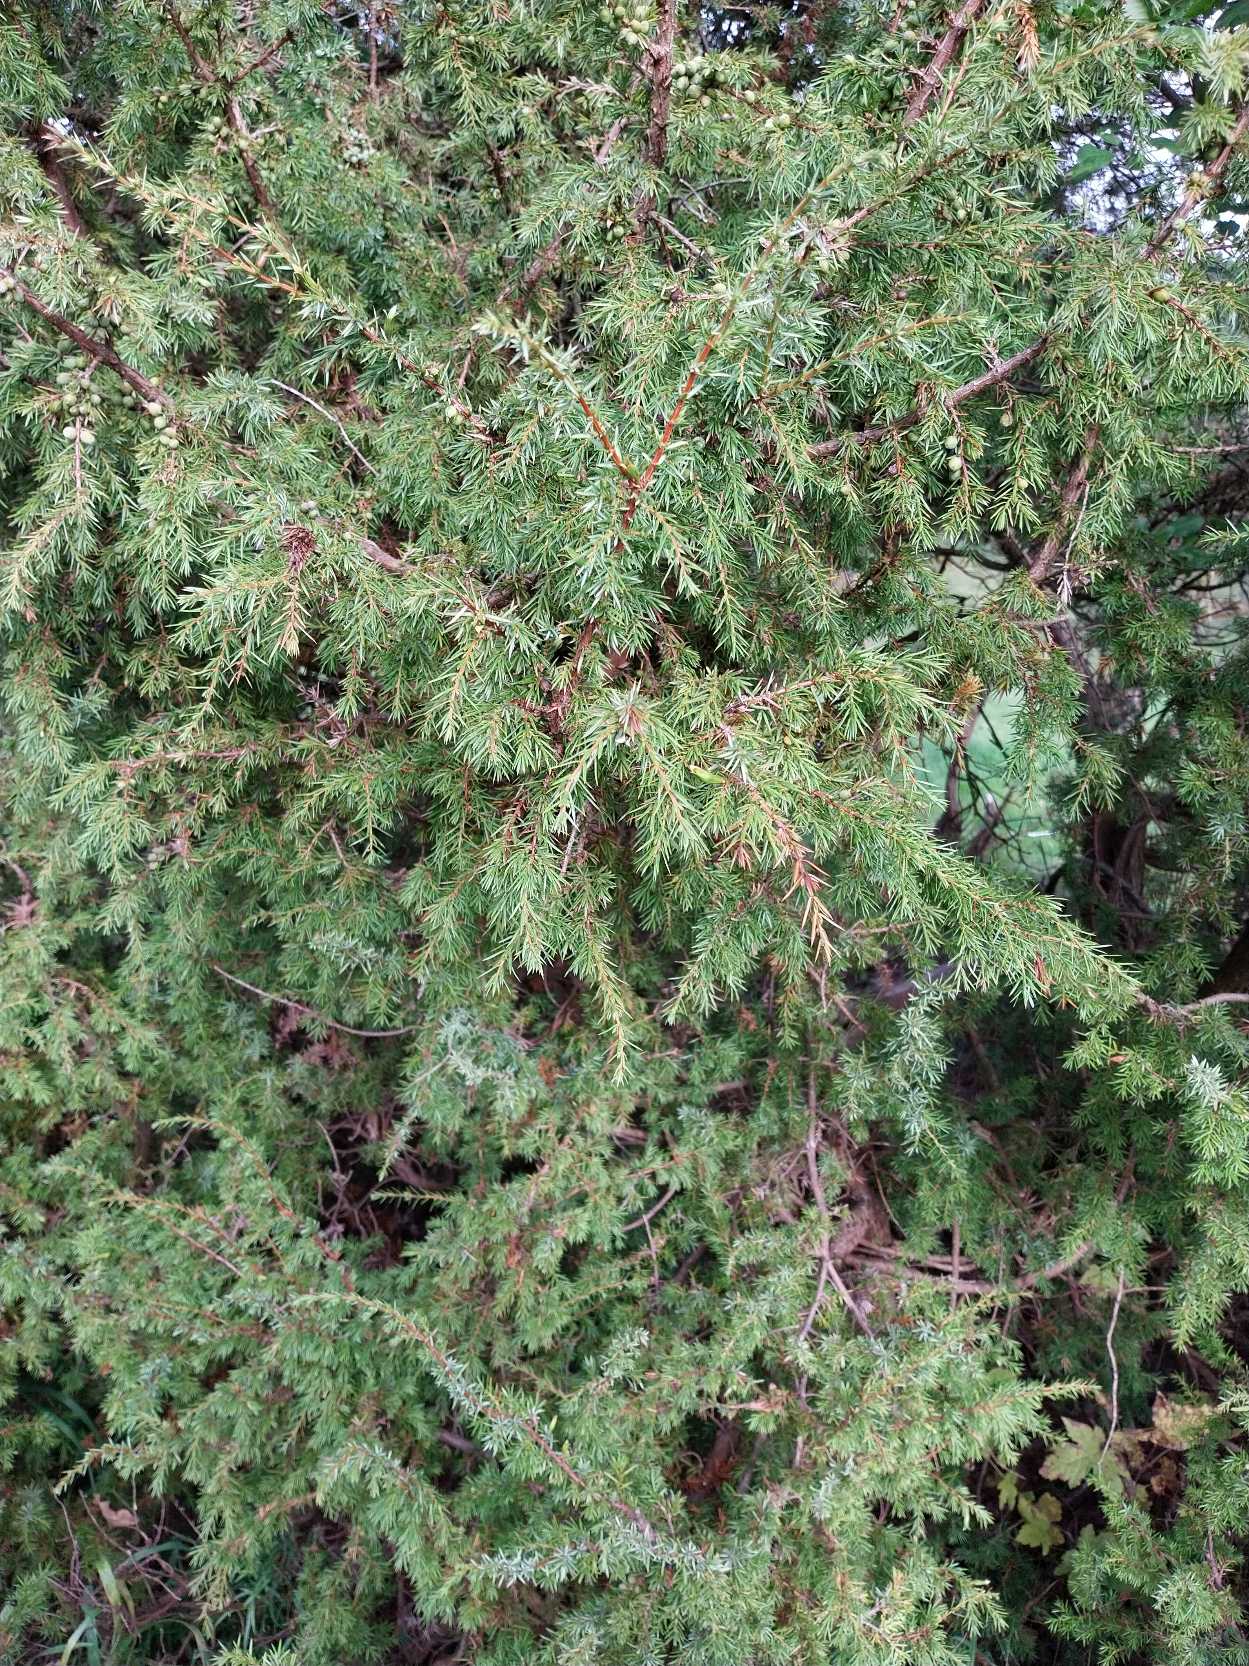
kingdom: Plantae
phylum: Tracheophyta
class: Pinopsida
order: Pinales
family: Cupressaceae
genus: Juniperus
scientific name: Juniperus communis
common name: Almindelig ene
